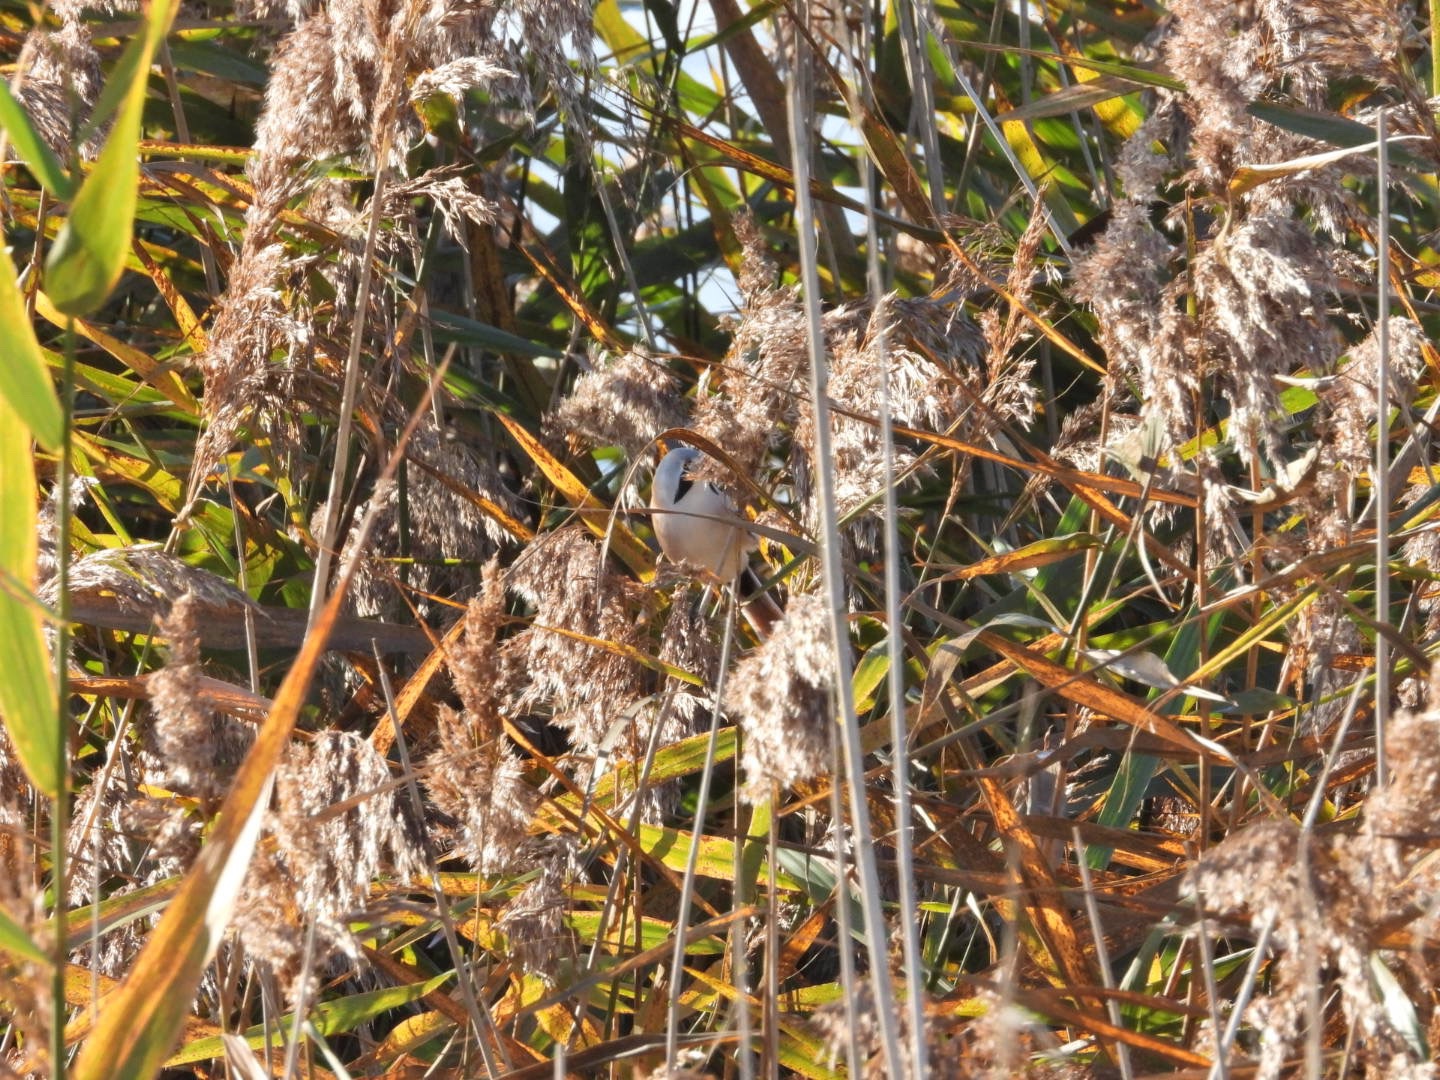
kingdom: Animalia
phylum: Chordata
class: Aves
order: Passeriformes
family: Panuridae
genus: Panurus
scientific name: Panurus biarmicus
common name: Skægmejse
